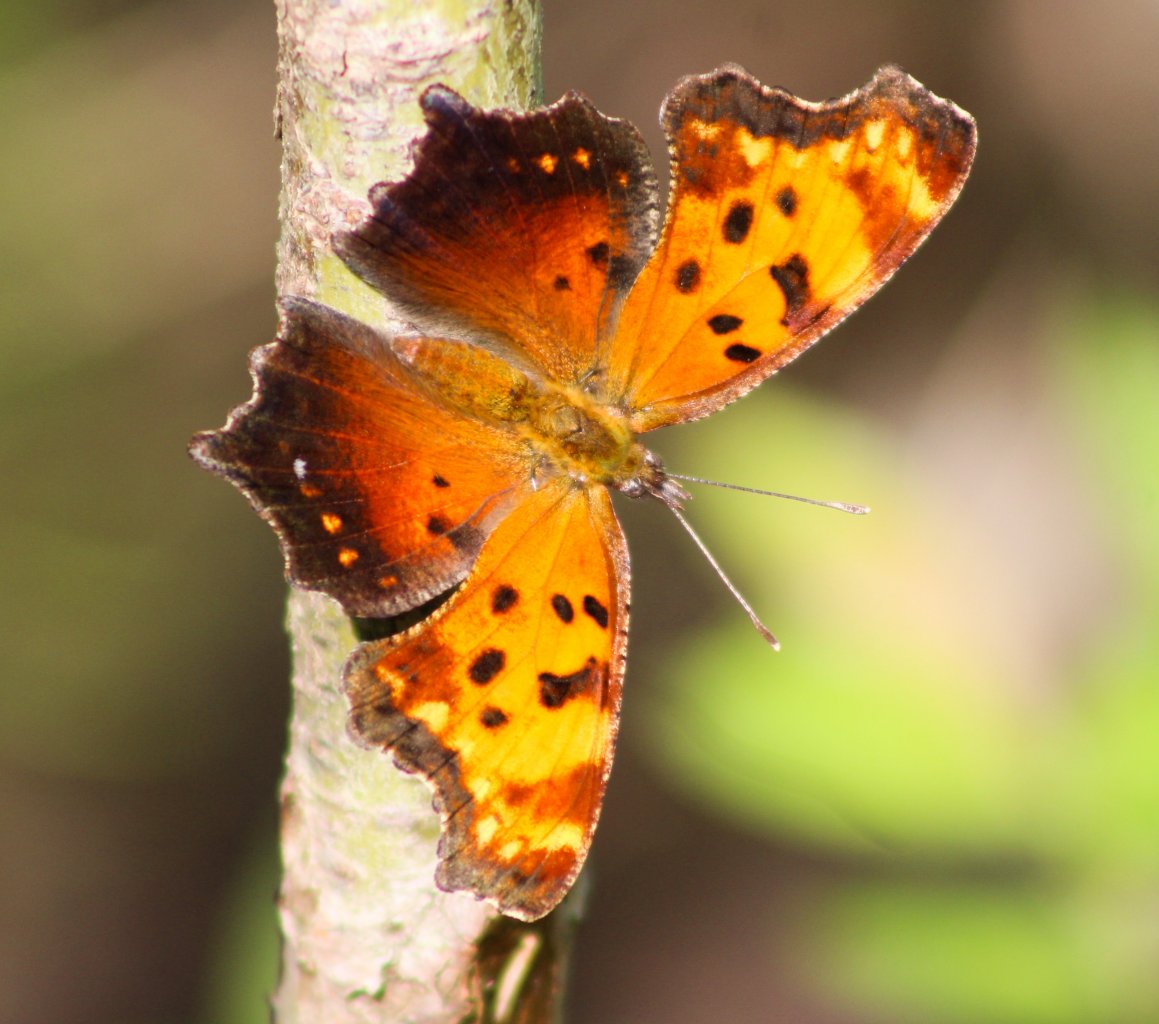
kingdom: Animalia
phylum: Arthropoda
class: Insecta
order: Lepidoptera
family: Nymphalidae
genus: Polygonia
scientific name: Polygonia progne
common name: Gray Comma
